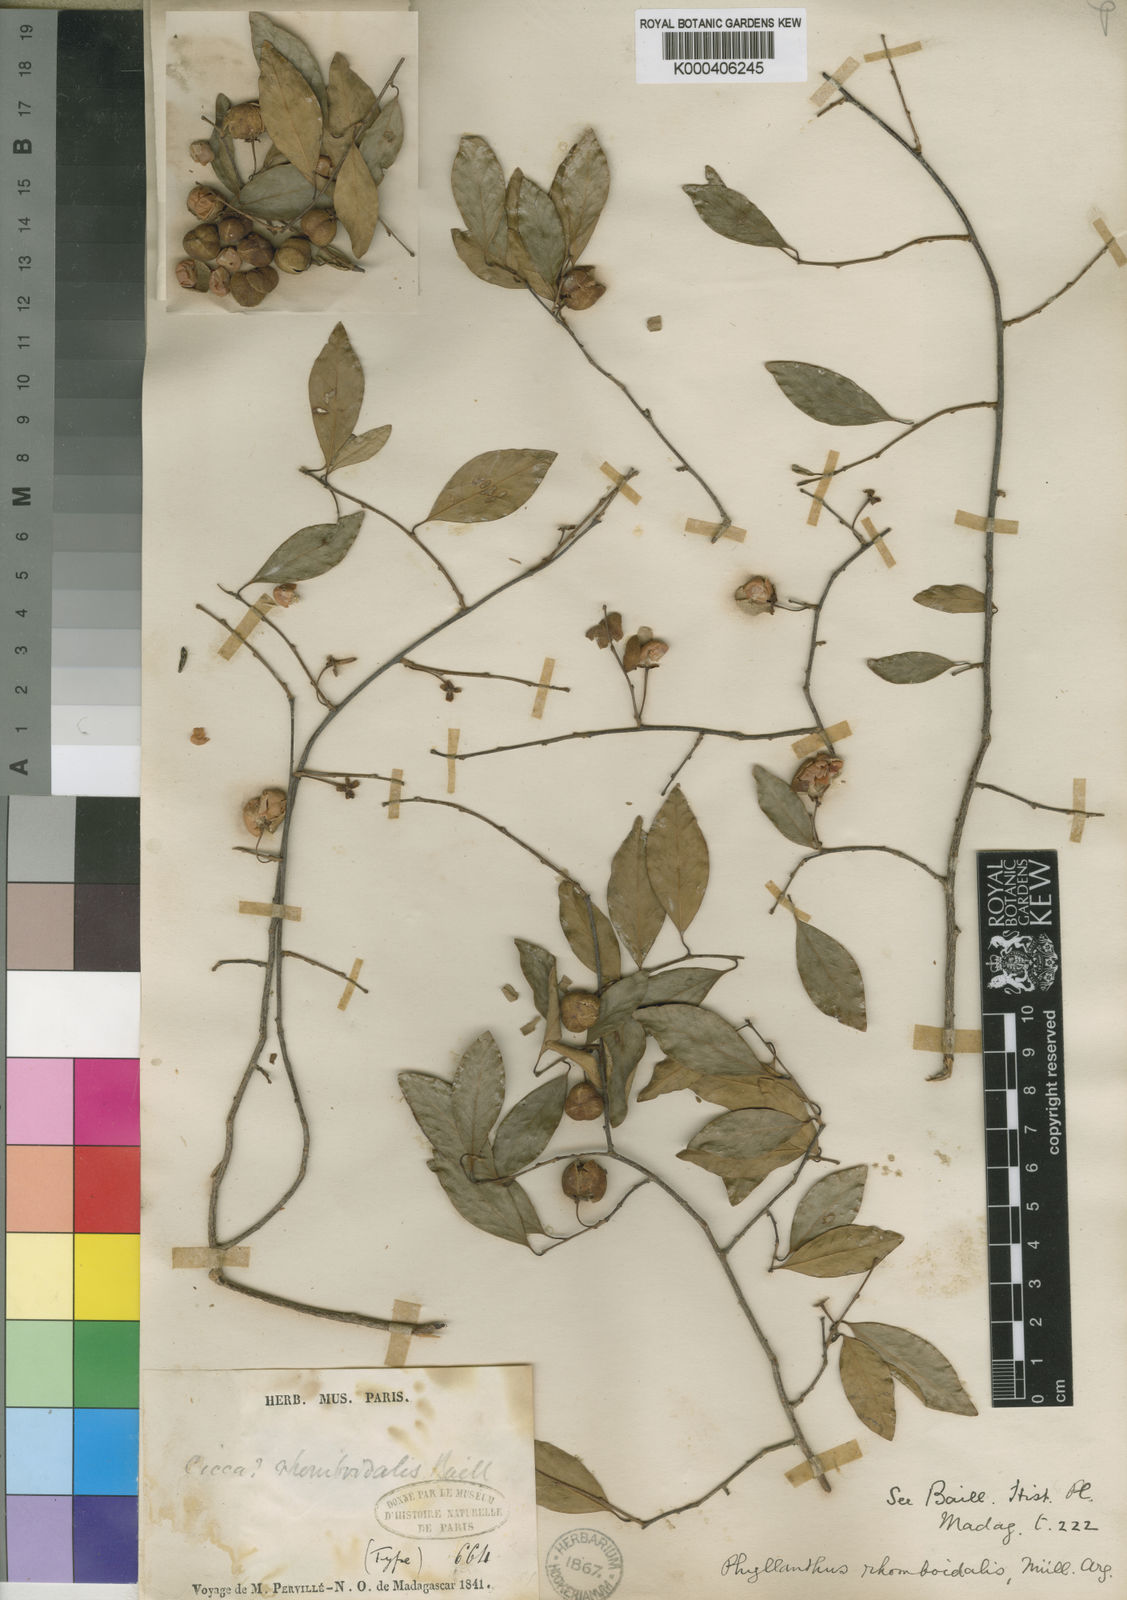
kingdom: Plantae
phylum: Tracheophyta
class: Magnoliopsida
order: Malpighiales
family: Phyllanthaceae
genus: Margaritaria
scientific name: Margaritaria rhomboidalis
